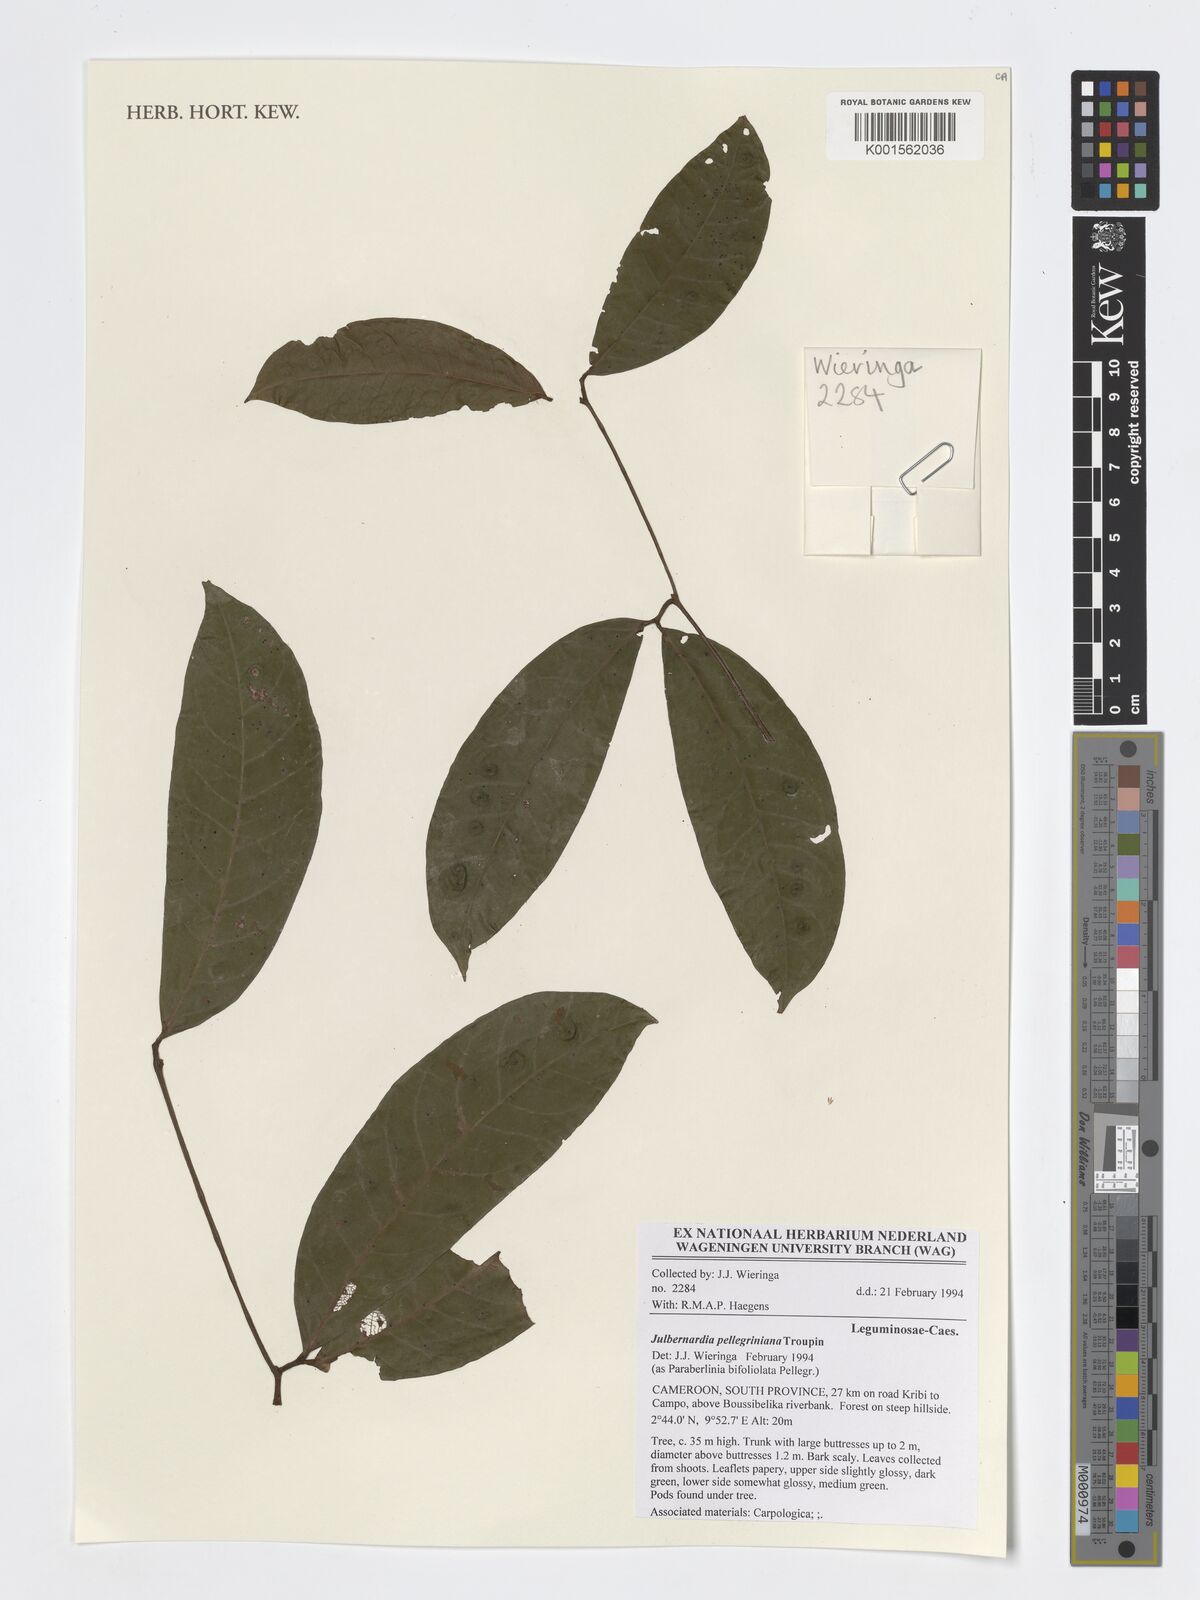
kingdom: Plantae
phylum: Tracheophyta
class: Magnoliopsida
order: Fabales
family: Fabaceae
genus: Julbernardia
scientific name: Julbernardia pellegriniana
